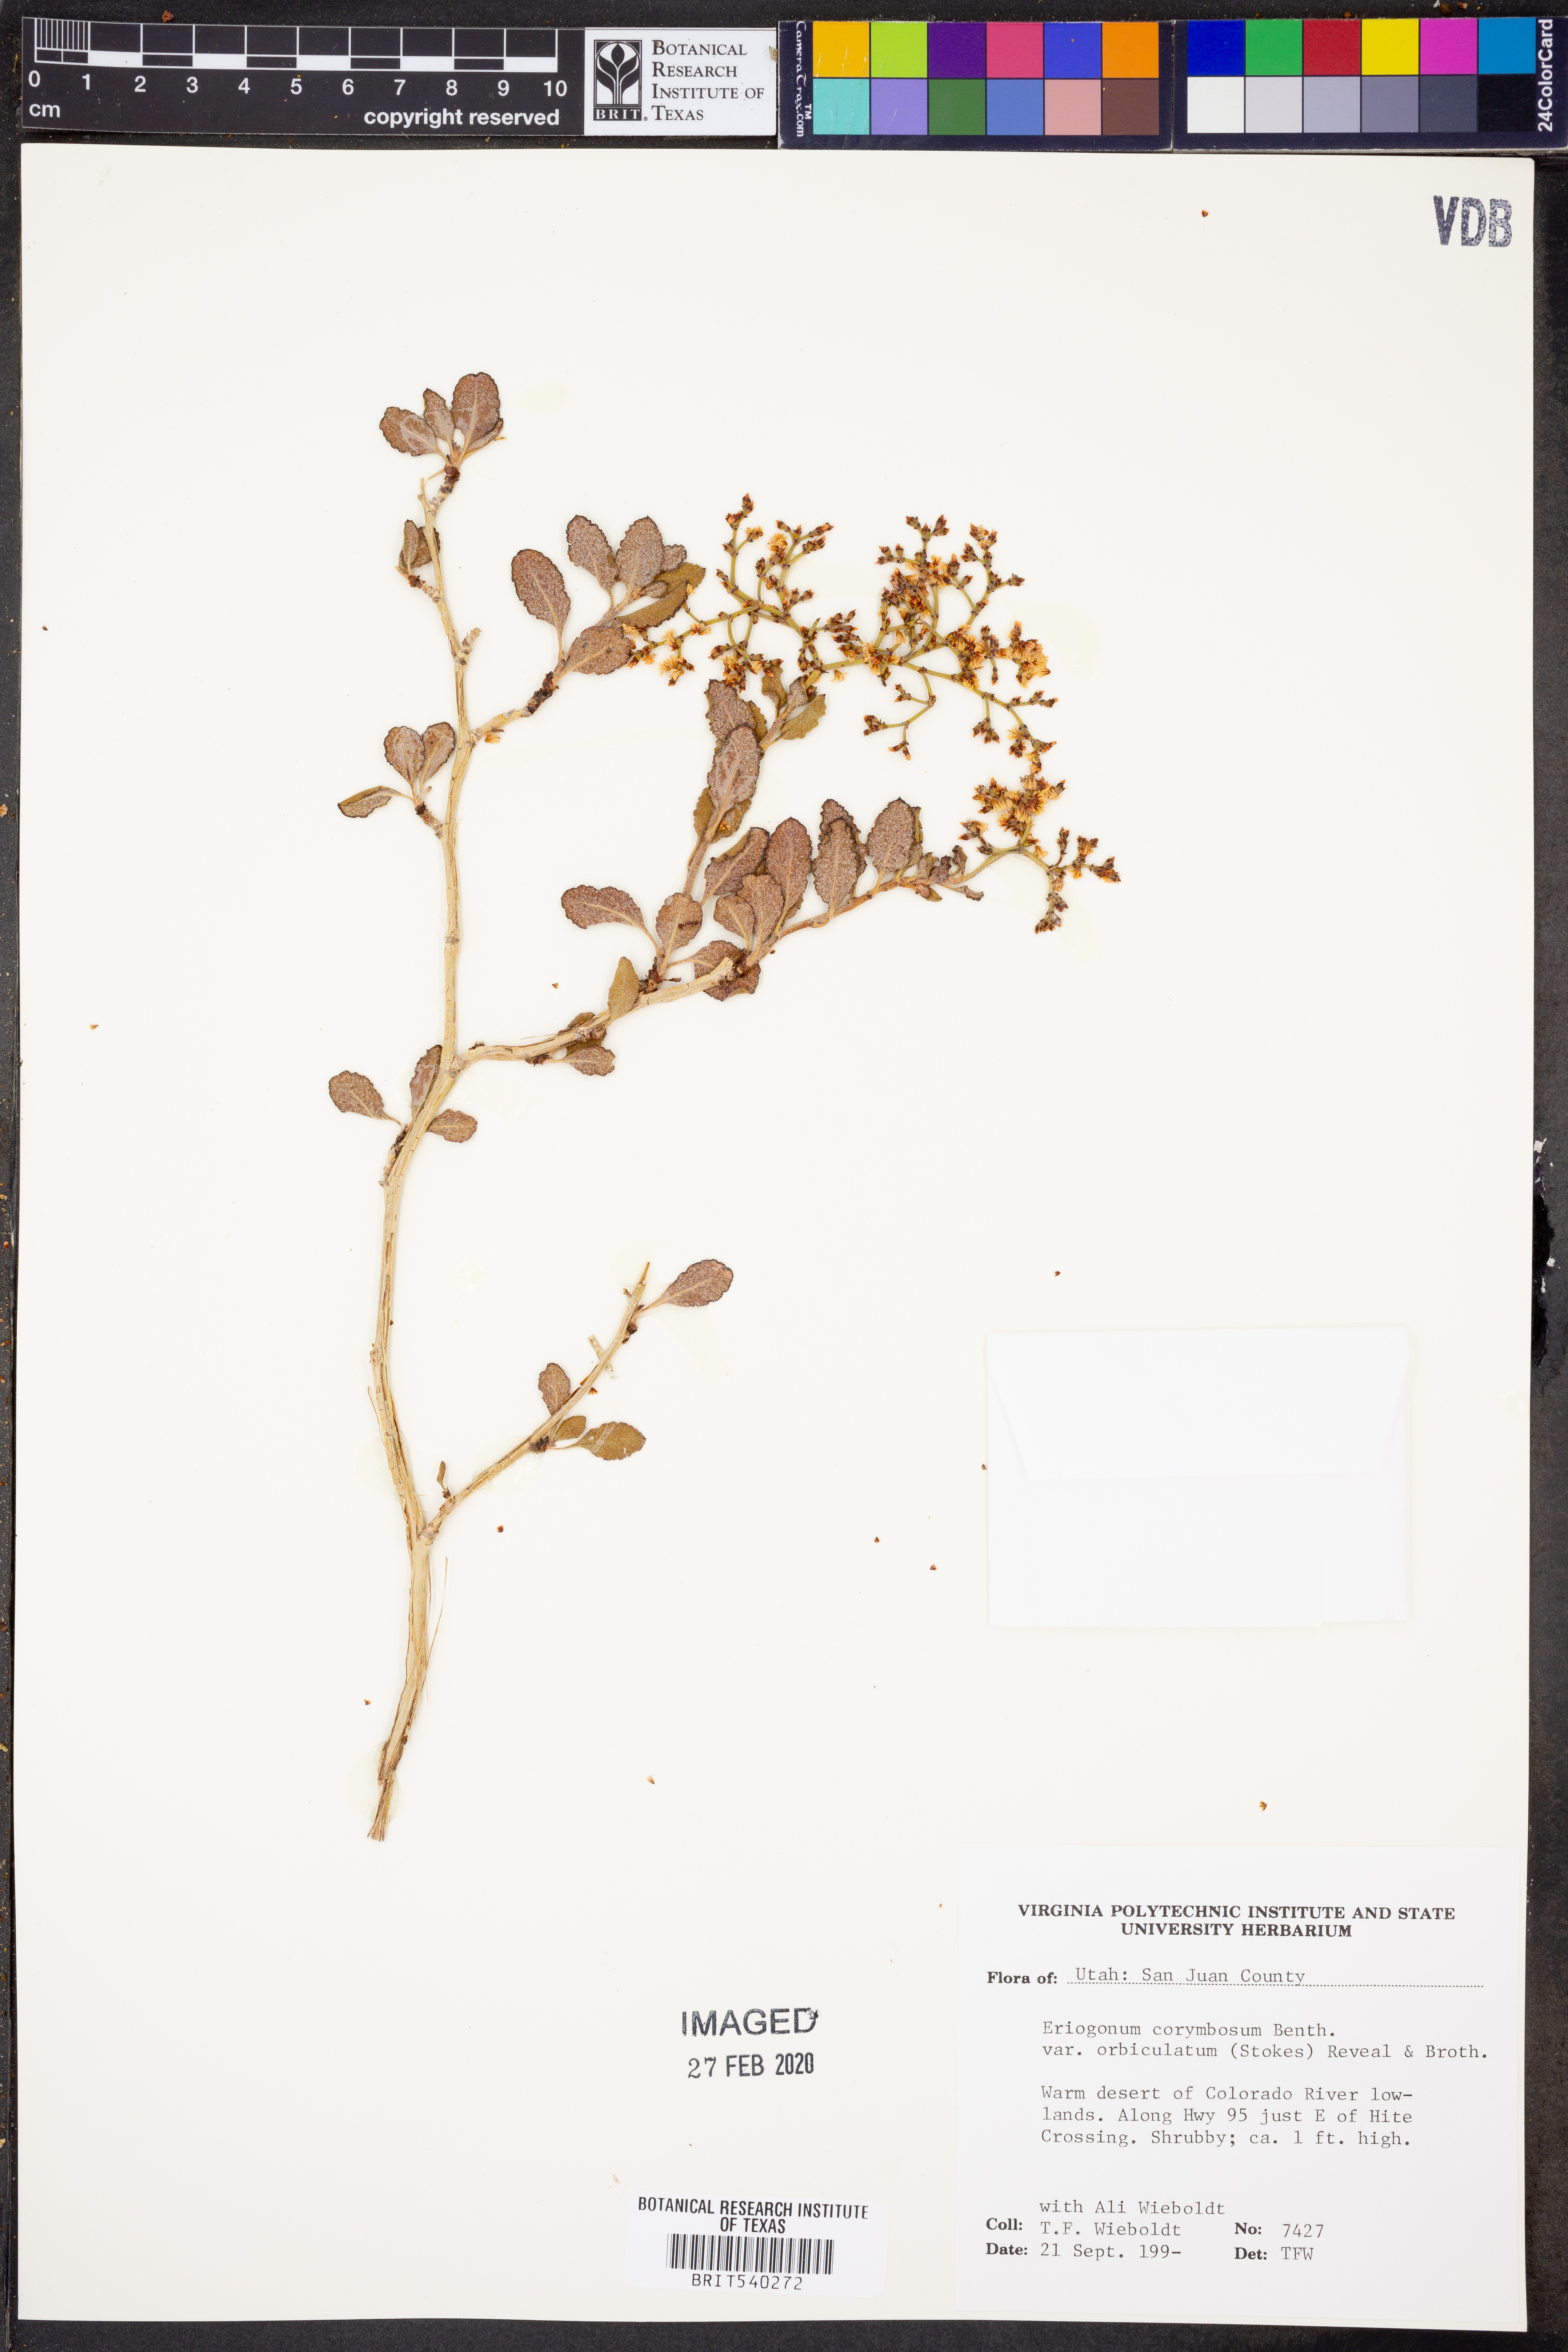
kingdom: Plantae
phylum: Tracheophyta
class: Magnoliopsida
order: Caryophyllales
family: Polygonaceae
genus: Eriogonum
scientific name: Eriogonum corymbosum
